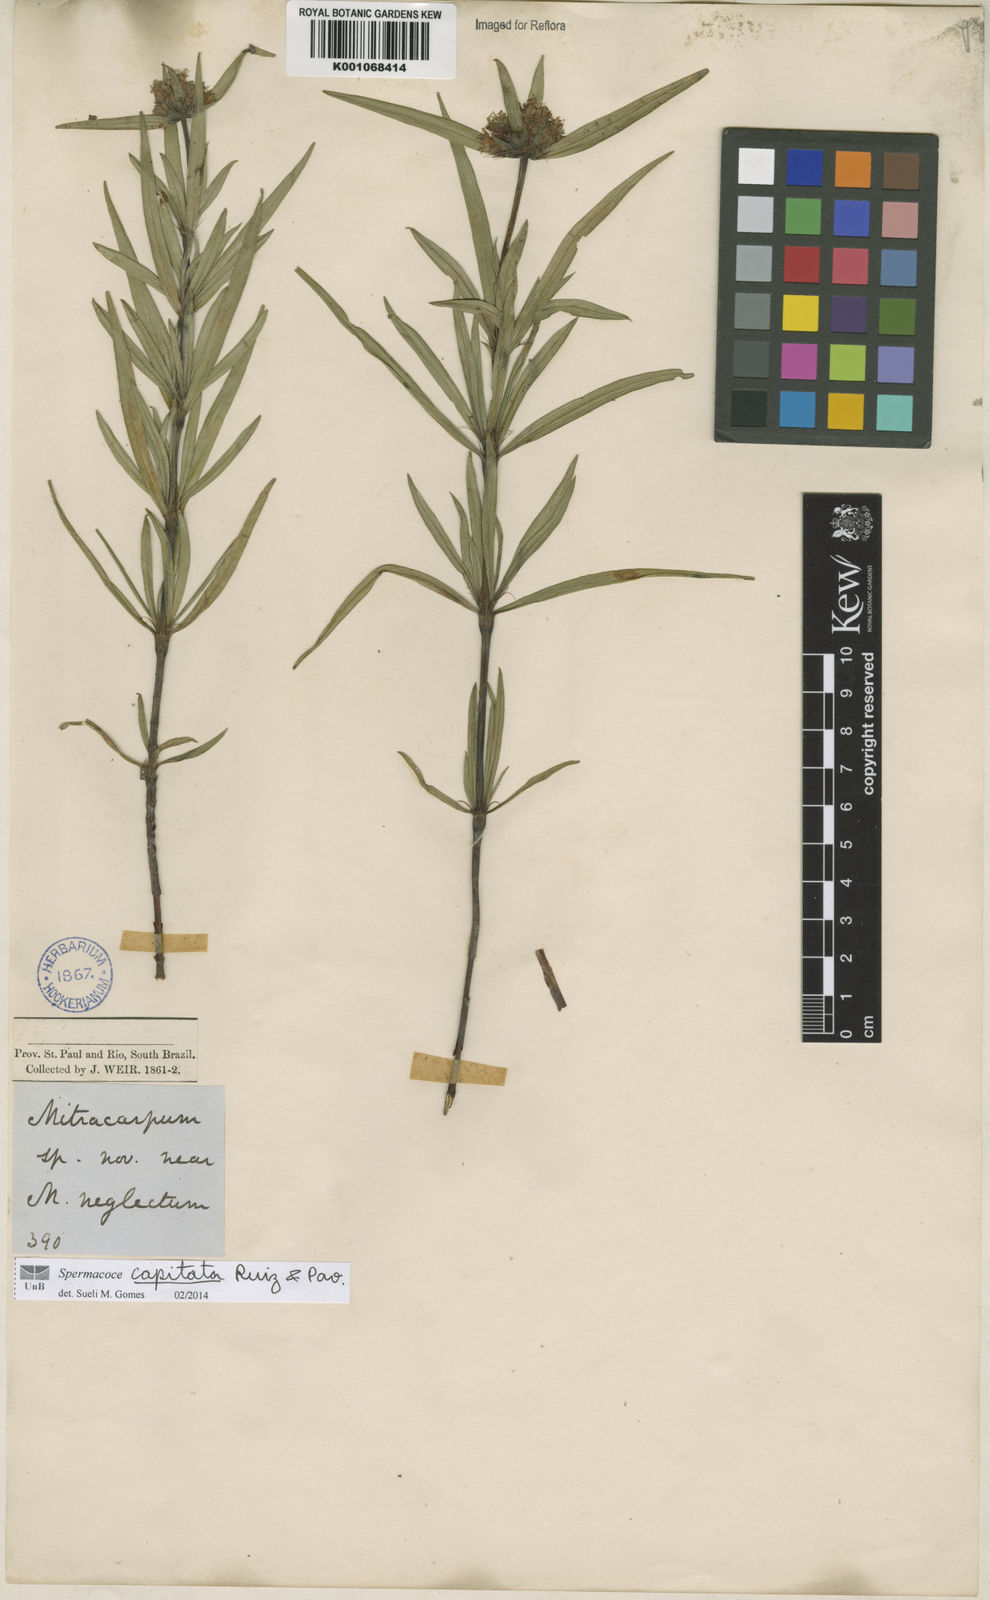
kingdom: Plantae
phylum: Tracheophyta
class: Magnoliopsida
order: Gentianales
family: Rubiaceae
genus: Spermacoce
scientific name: Spermacoce capitata
